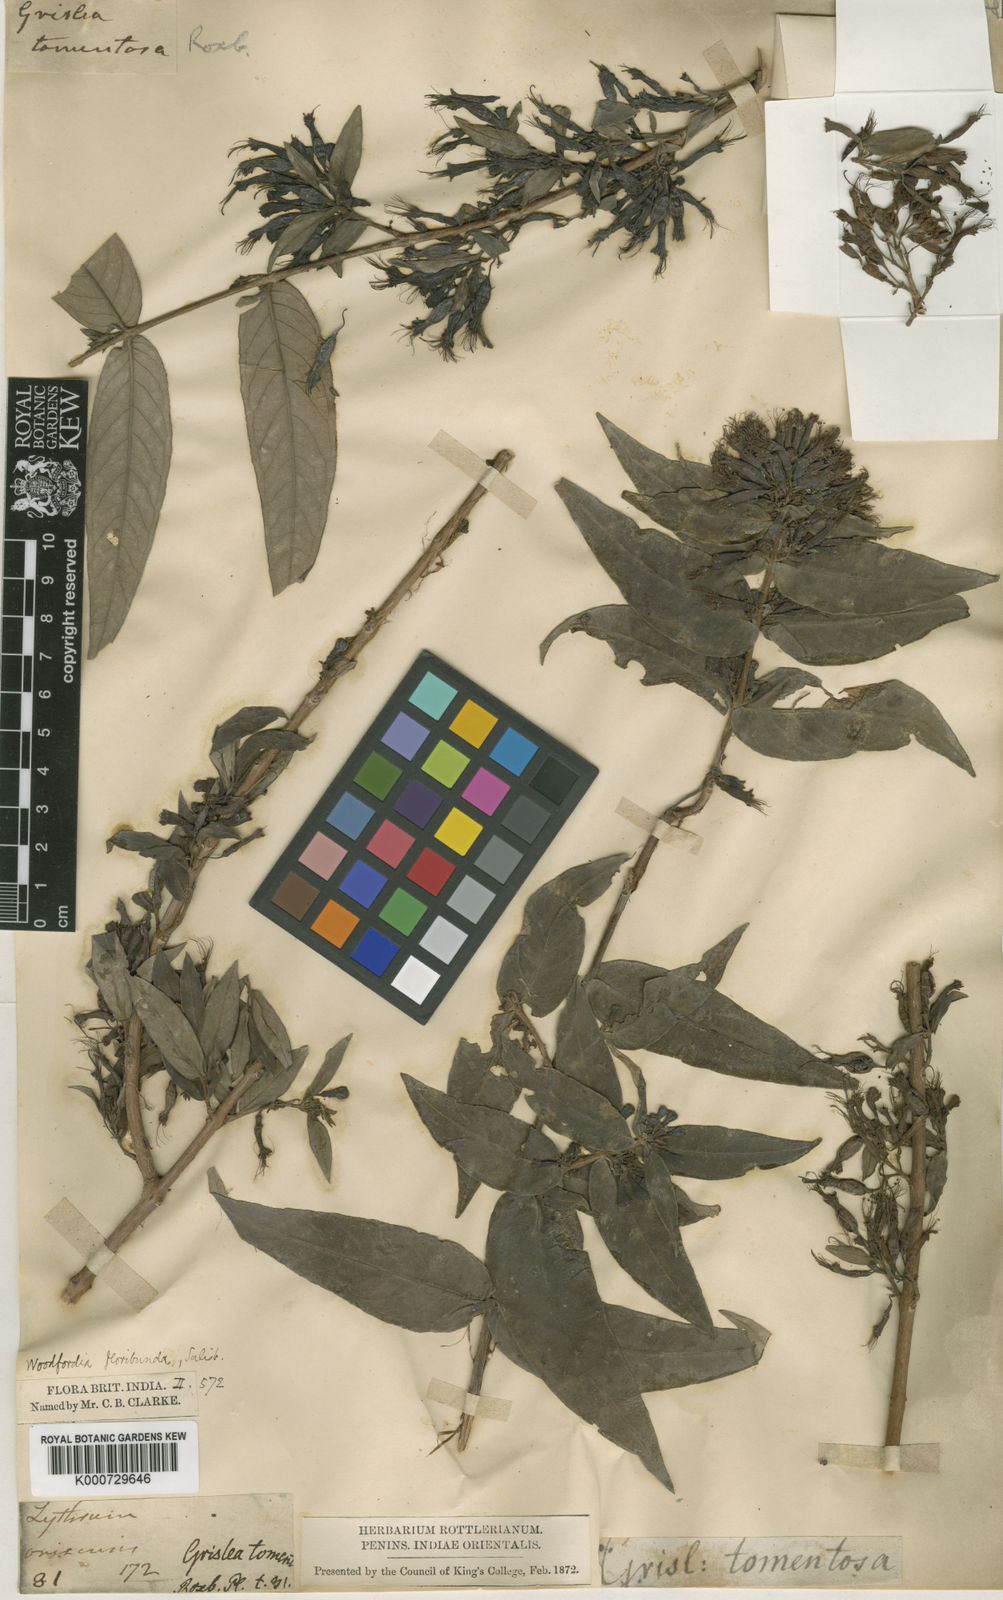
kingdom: Plantae
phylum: Tracheophyta
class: Magnoliopsida
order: Myrtales
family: Lythraceae
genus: Woodfordia
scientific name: Woodfordia fruticosa
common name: Shiranji-tea
